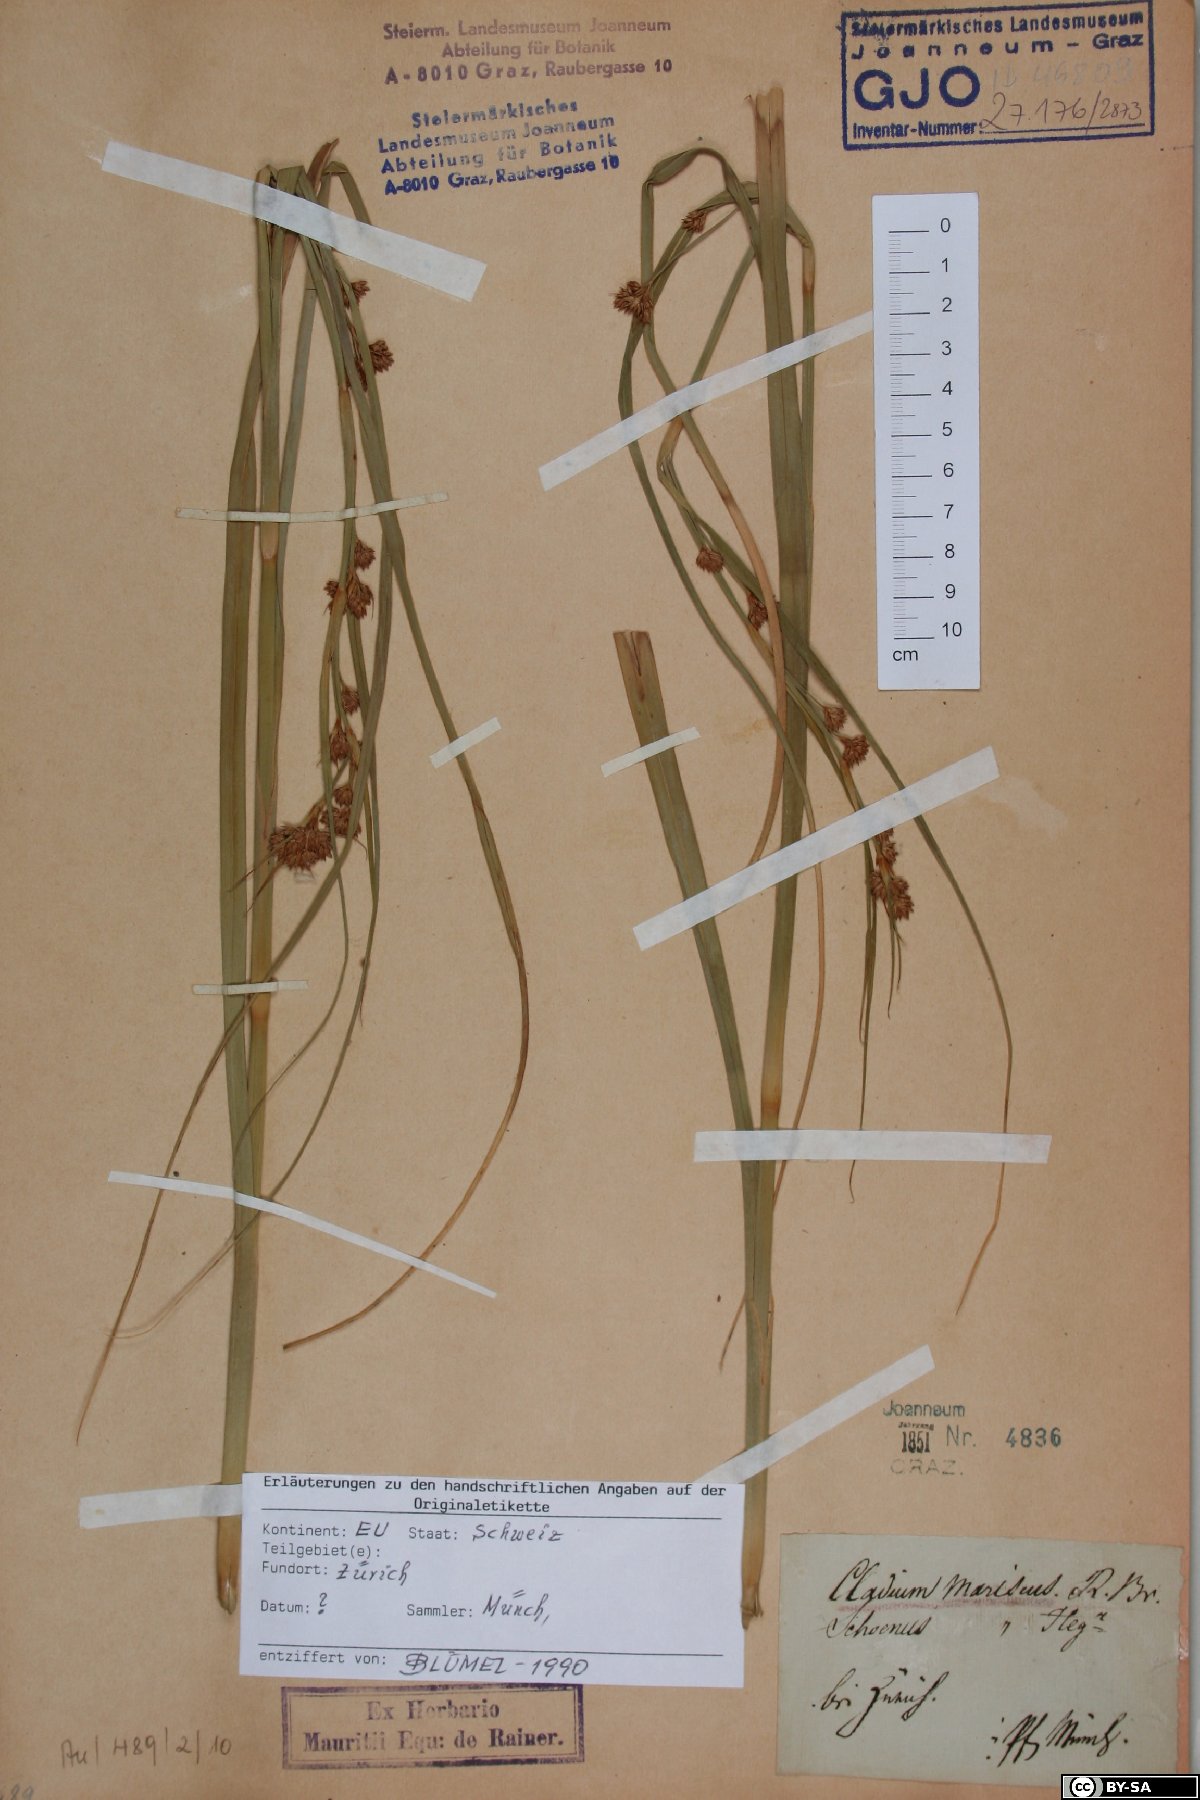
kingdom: Plantae
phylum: Tracheophyta
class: Liliopsida
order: Poales
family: Cyperaceae
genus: Cladium
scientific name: Cladium mariscus
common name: Great fen-sedge
